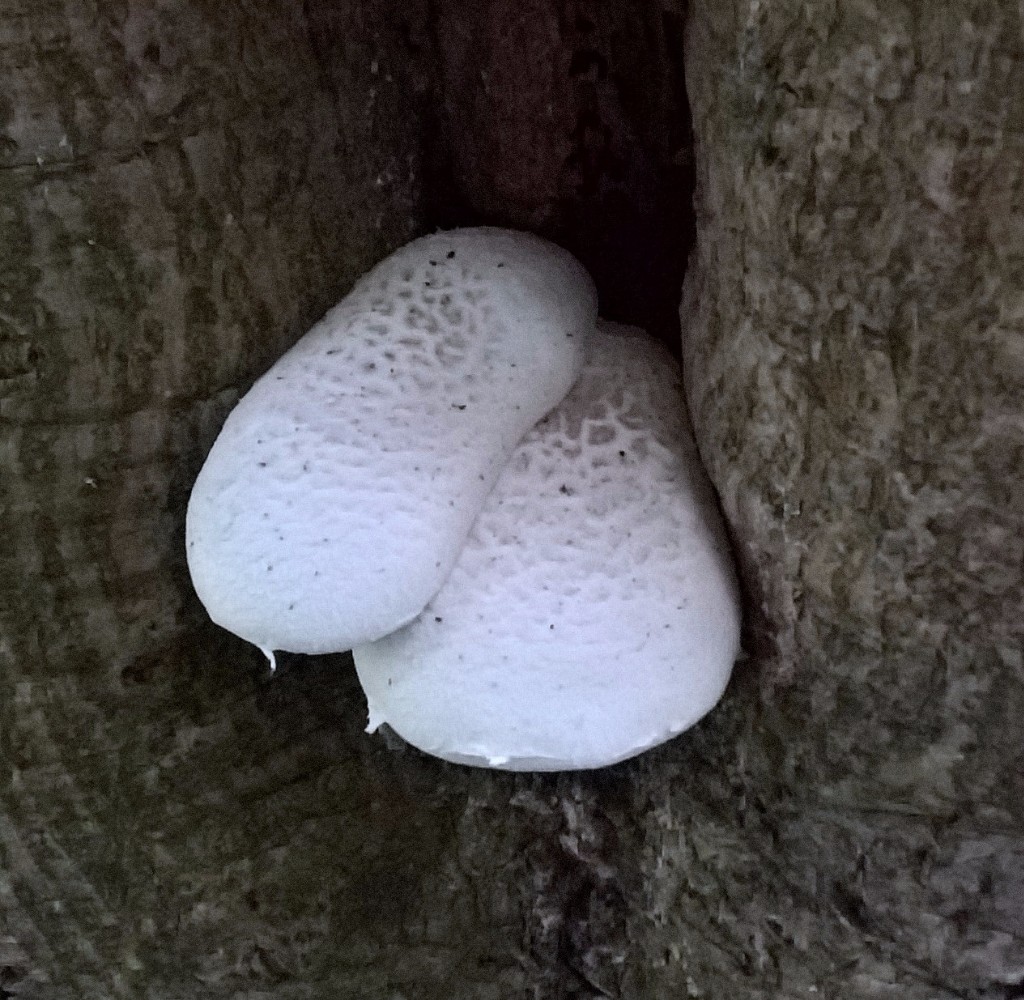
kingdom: Fungi
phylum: Basidiomycota
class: Agaricomycetes
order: Agaricales
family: Pleurotaceae
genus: Pleurotus
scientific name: Pleurotus dryinus
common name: korkagtig østershat
